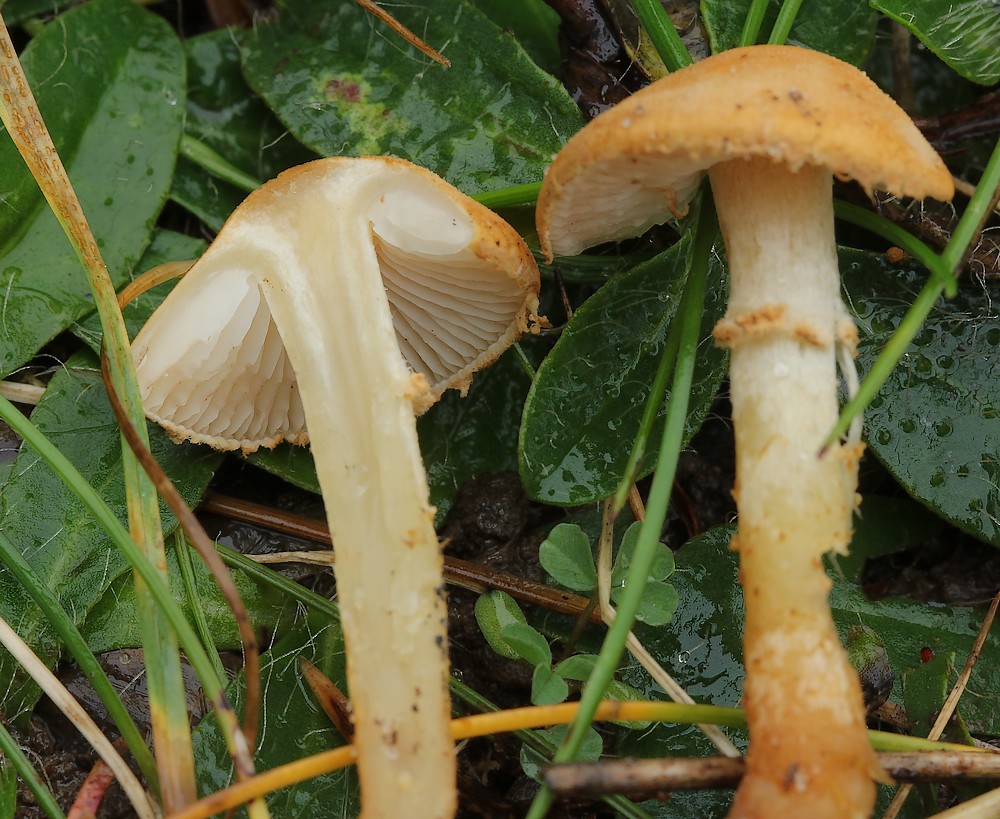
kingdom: Fungi
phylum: Basidiomycota
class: Agaricomycetes
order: Agaricales
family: Tricholomataceae
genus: Cystoderma
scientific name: Cystoderma amianthinum
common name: okkergul grynhat
